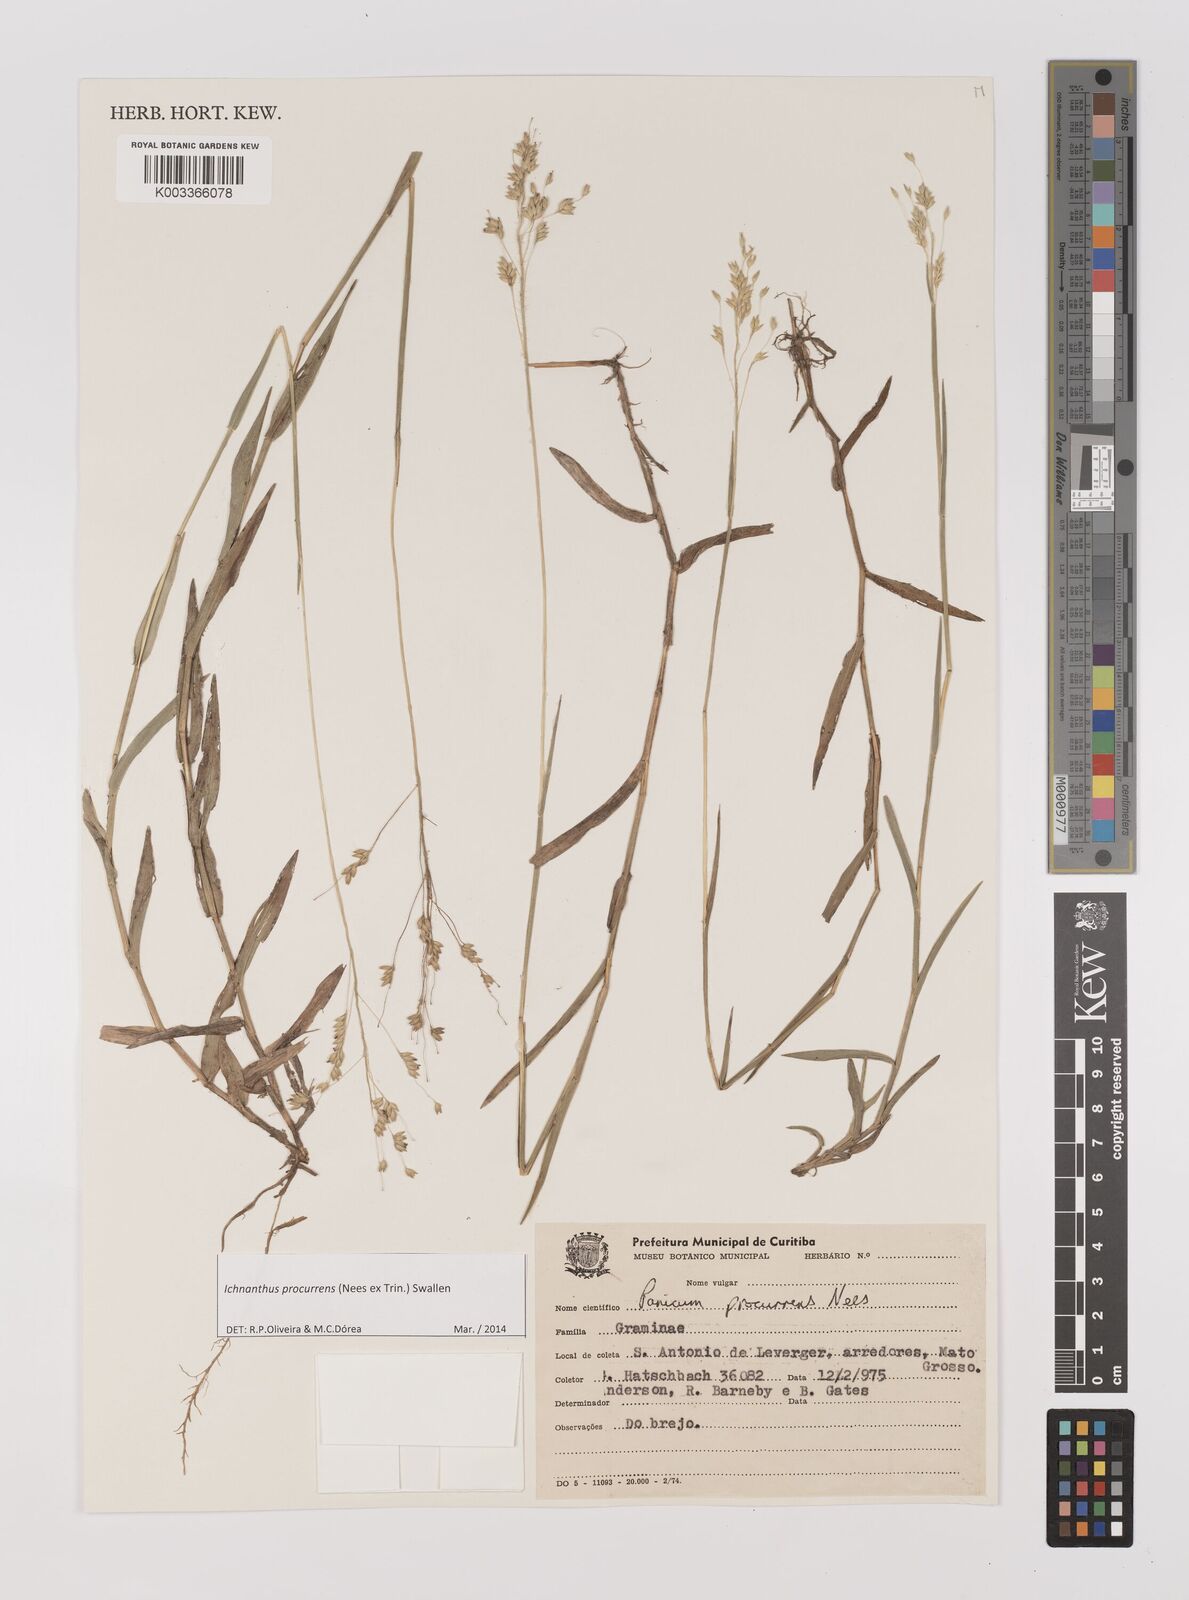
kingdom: Plantae
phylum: Tracheophyta
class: Liliopsida
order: Poales
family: Poaceae
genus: Oedochloa
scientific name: Oedochloa procurrens
